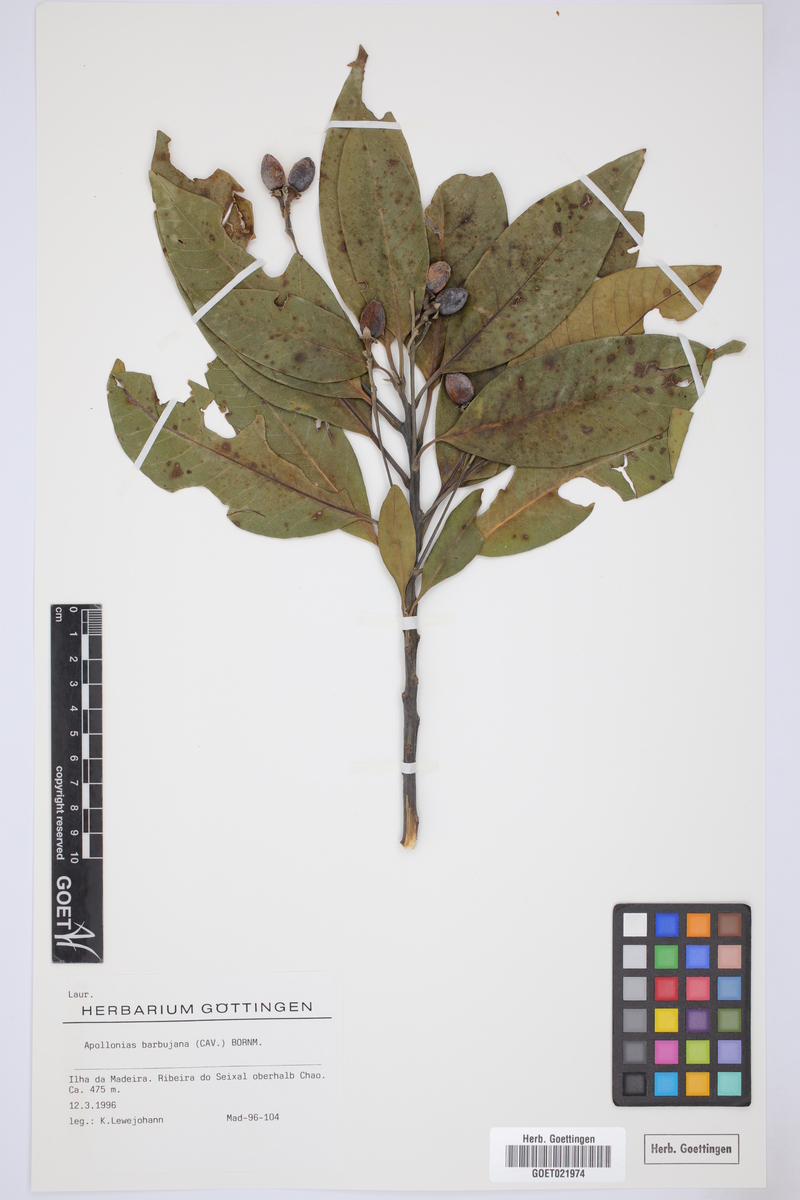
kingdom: Plantae
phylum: Tracheophyta
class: Magnoliopsida
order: Laurales
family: Lauraceae
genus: Apollonias
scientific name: Apollonias barbujana
